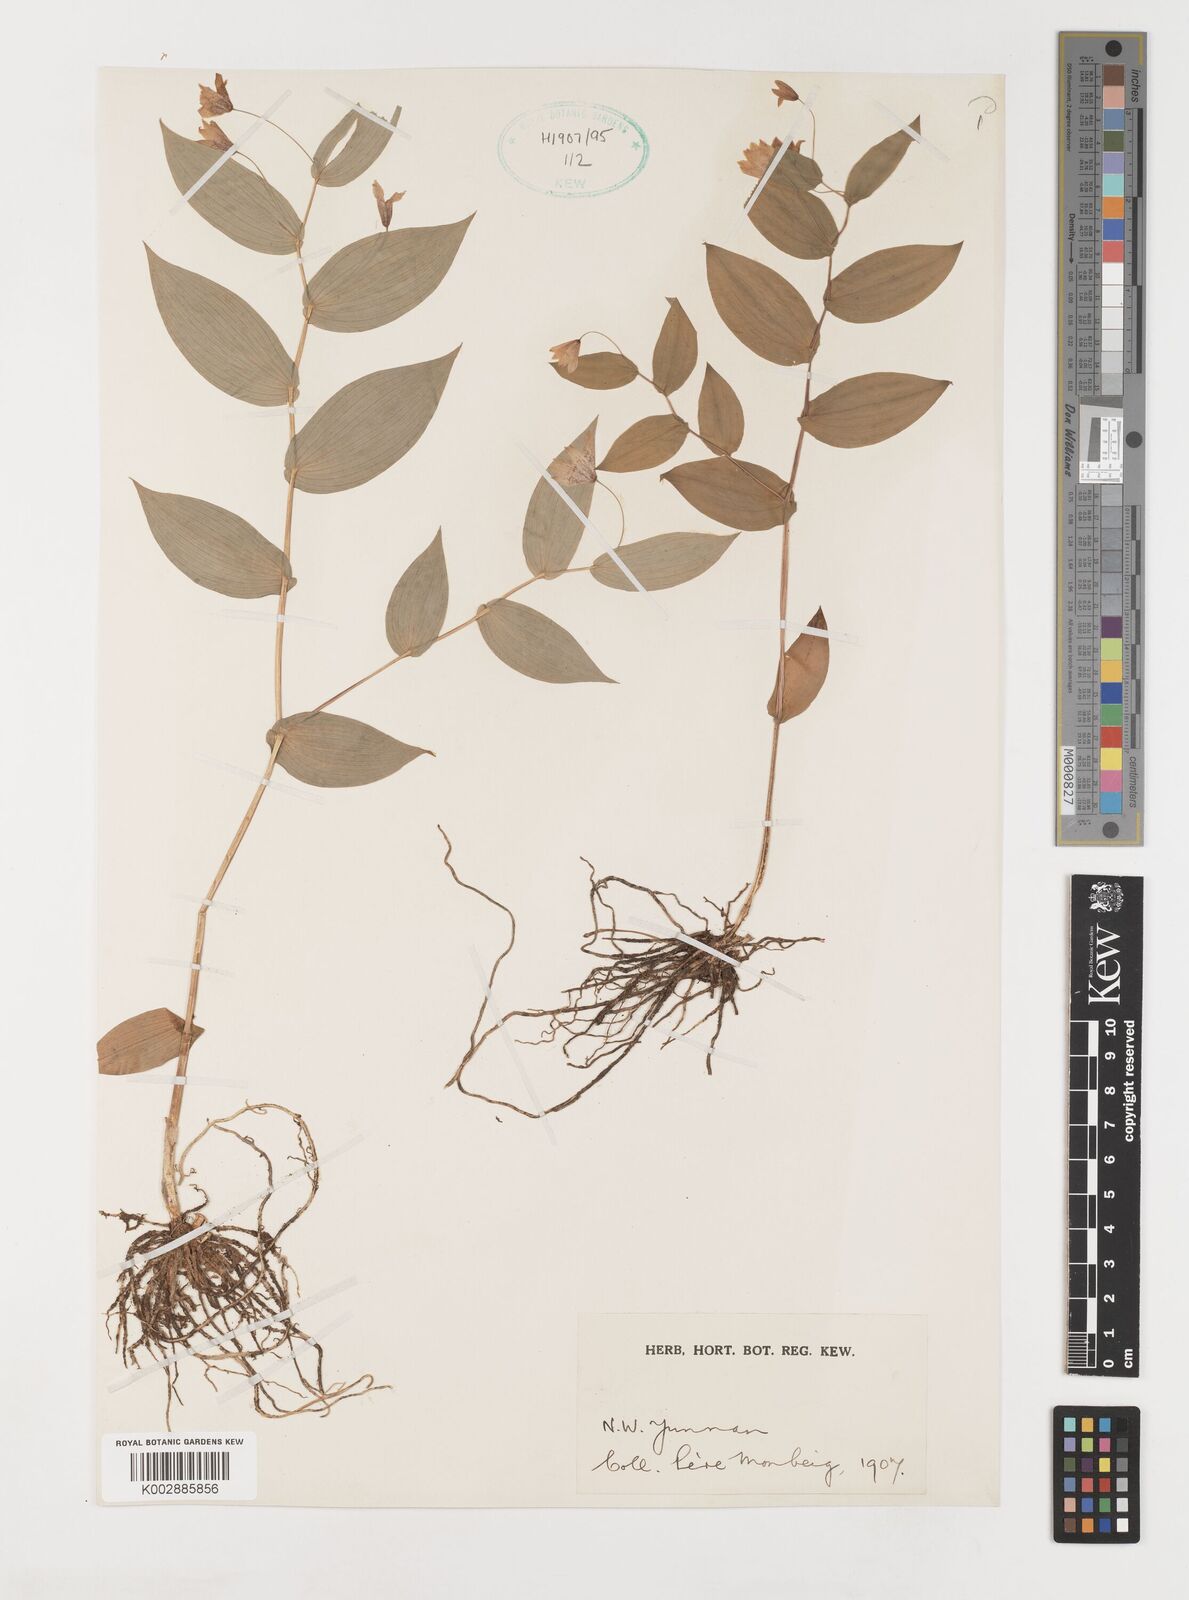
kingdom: Plantae
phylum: Tracheophyta
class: Liliopsida
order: Liliales
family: Liliaceae
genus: Streptopus
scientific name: Streptopus simplex
